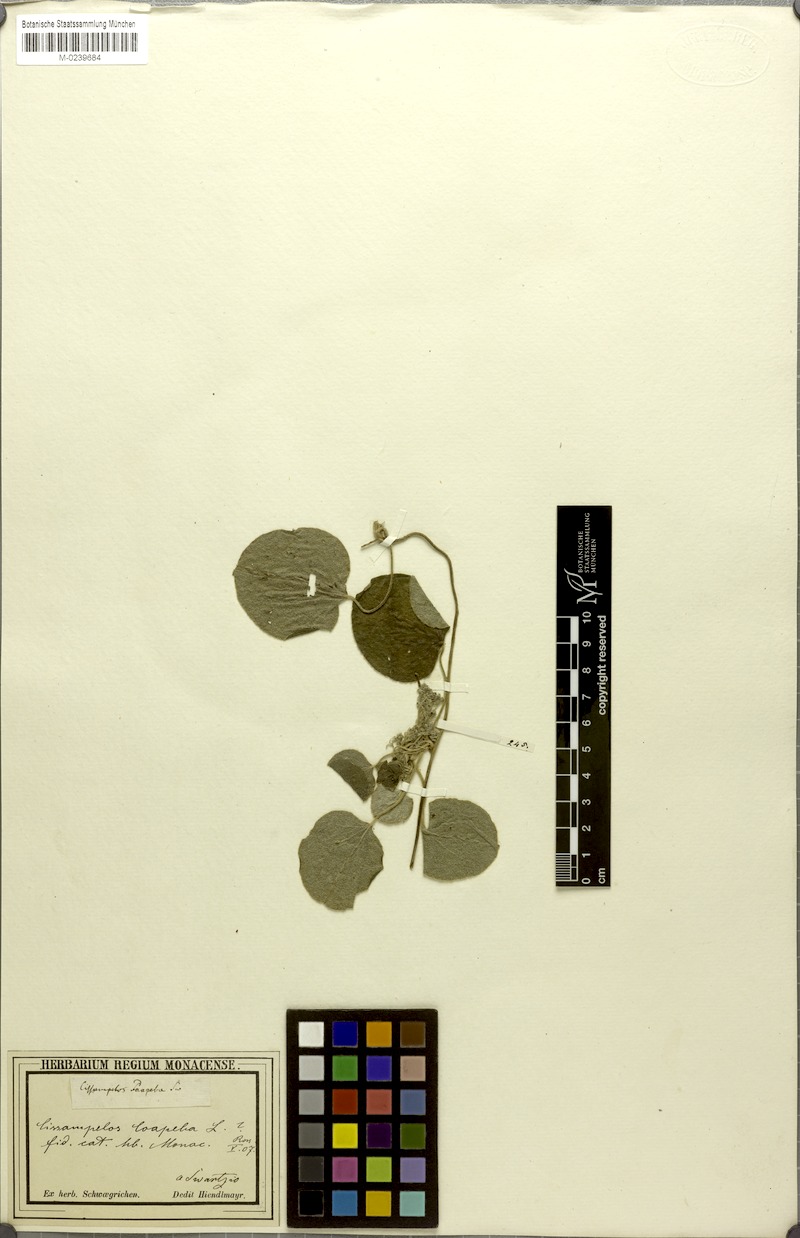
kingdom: Plantae
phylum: Tracheophyta
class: Magnoliopsida
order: Ranunculales
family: Menispermaceae
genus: Cissampelos
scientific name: Cissampelos pareira
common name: Velvetleaf
